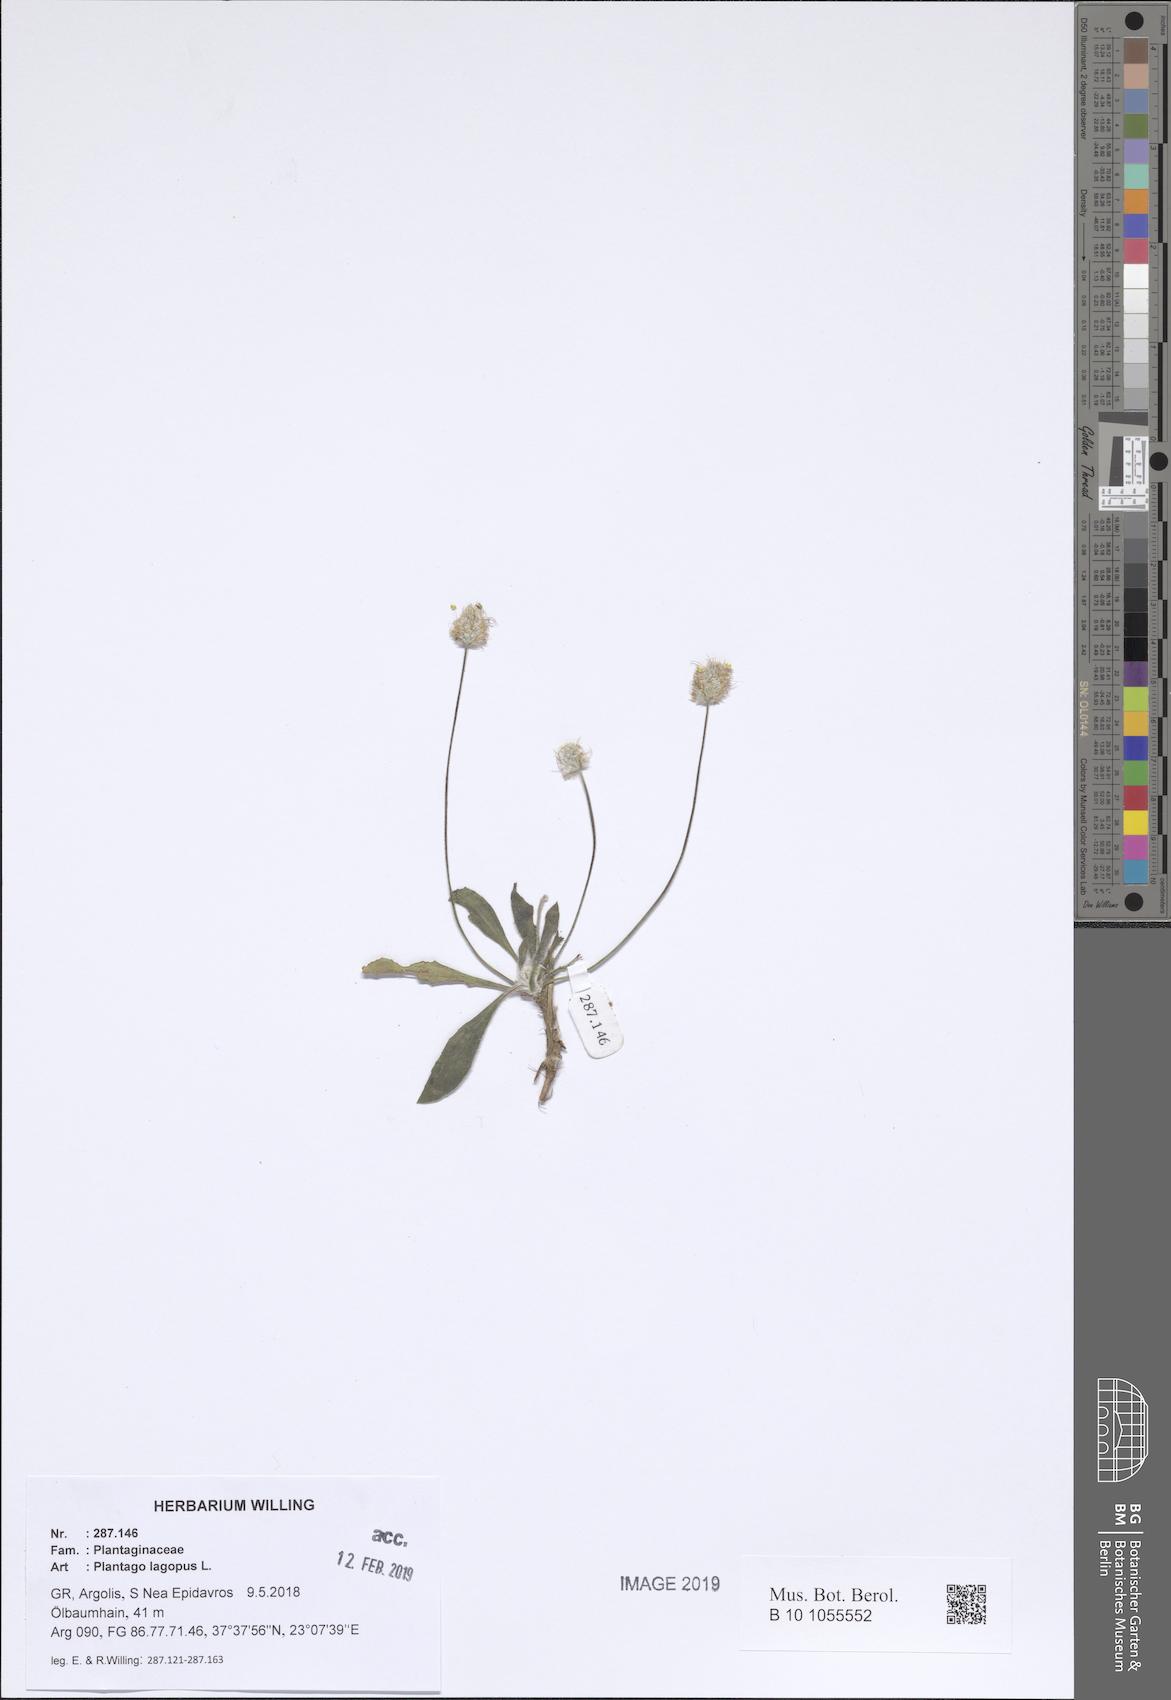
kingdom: Plantae
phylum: Tracheophyta
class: Magnoliopsida
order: Lamiales
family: Plantaginaceae
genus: Plantago
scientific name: Plantago lagopus
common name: Hare-foot plantain
